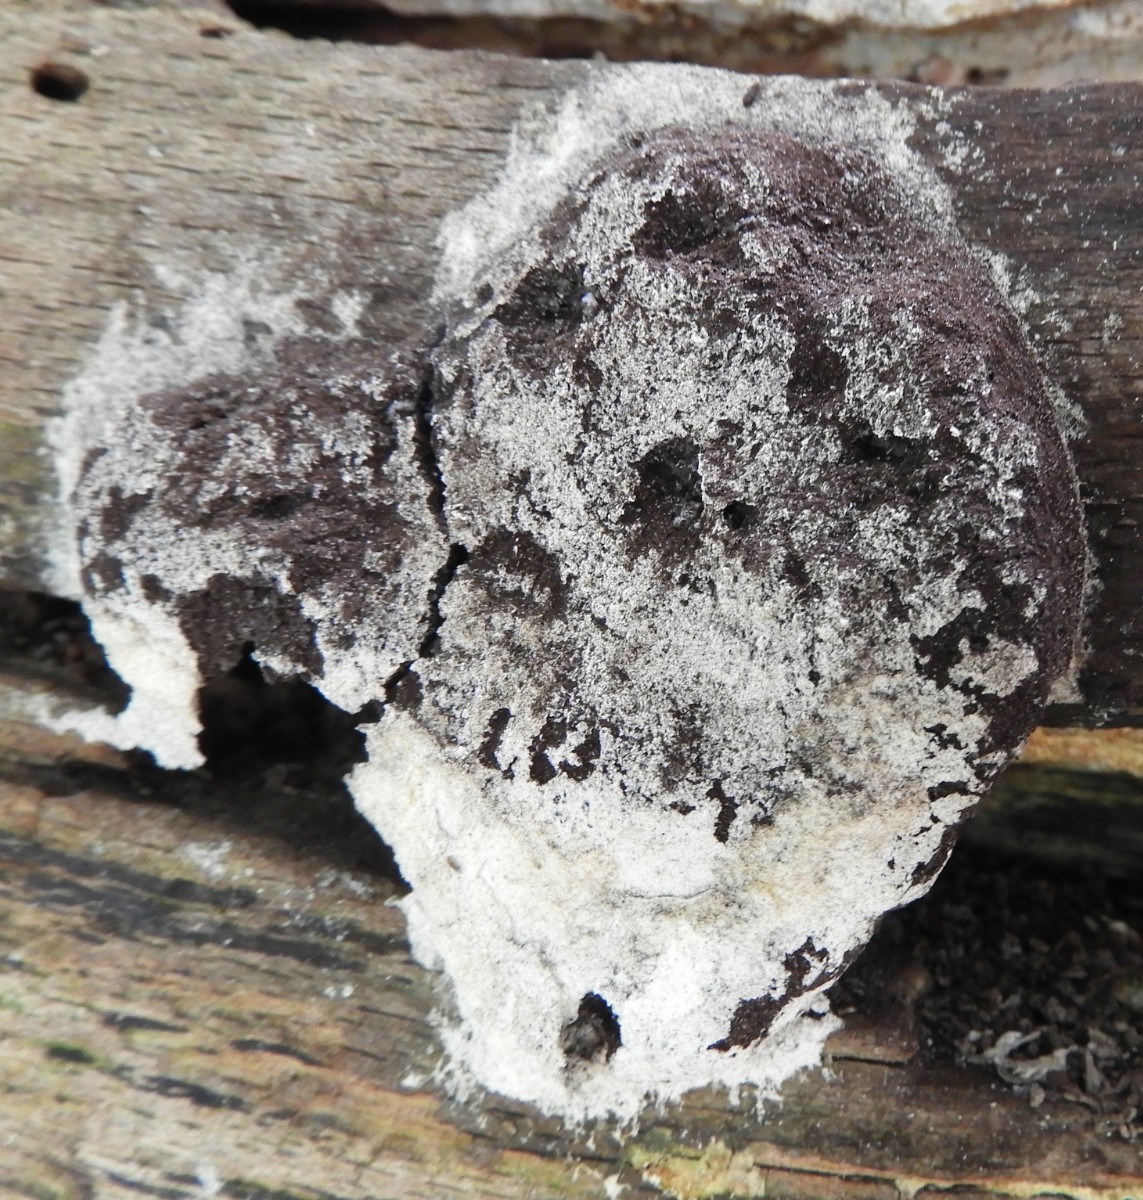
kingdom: Protozoa
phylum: Mycetozoa
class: Myxomycetes
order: Physarales
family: Physaraceae
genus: Fuligo
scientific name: Fuligo septica
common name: gul troldsmør
